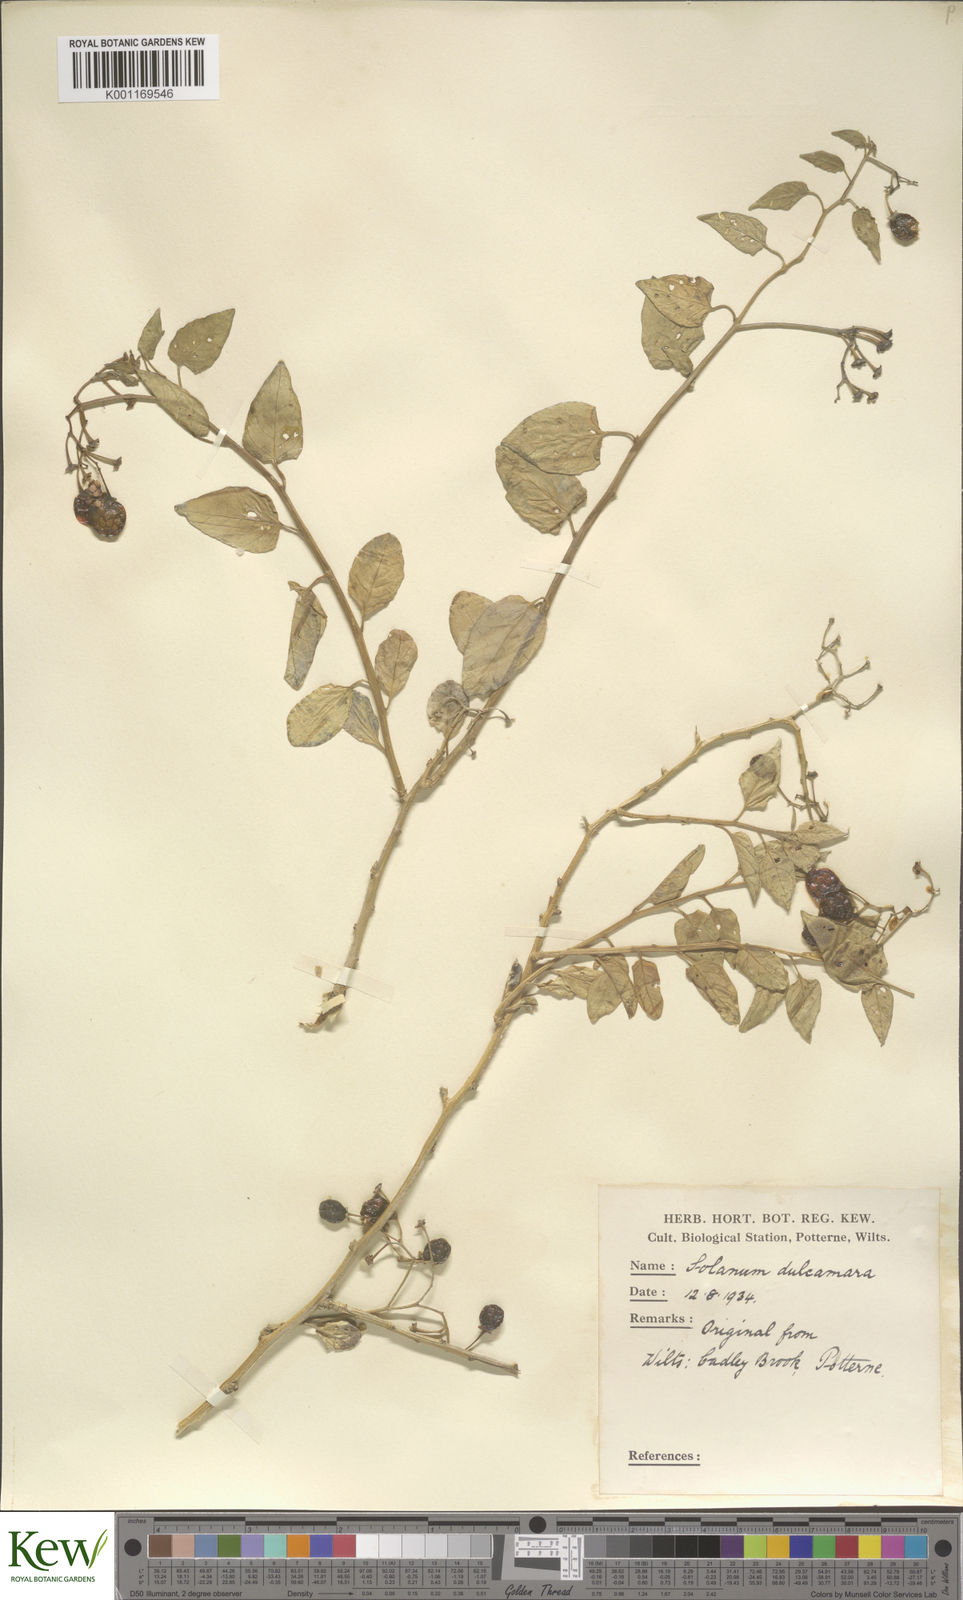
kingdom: Plantae
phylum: Tracheophyta
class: Magnoliopsida
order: Solanales
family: Solanaceae
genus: Solanum
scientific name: Solanum dulcamara
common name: Climbing nightshade
